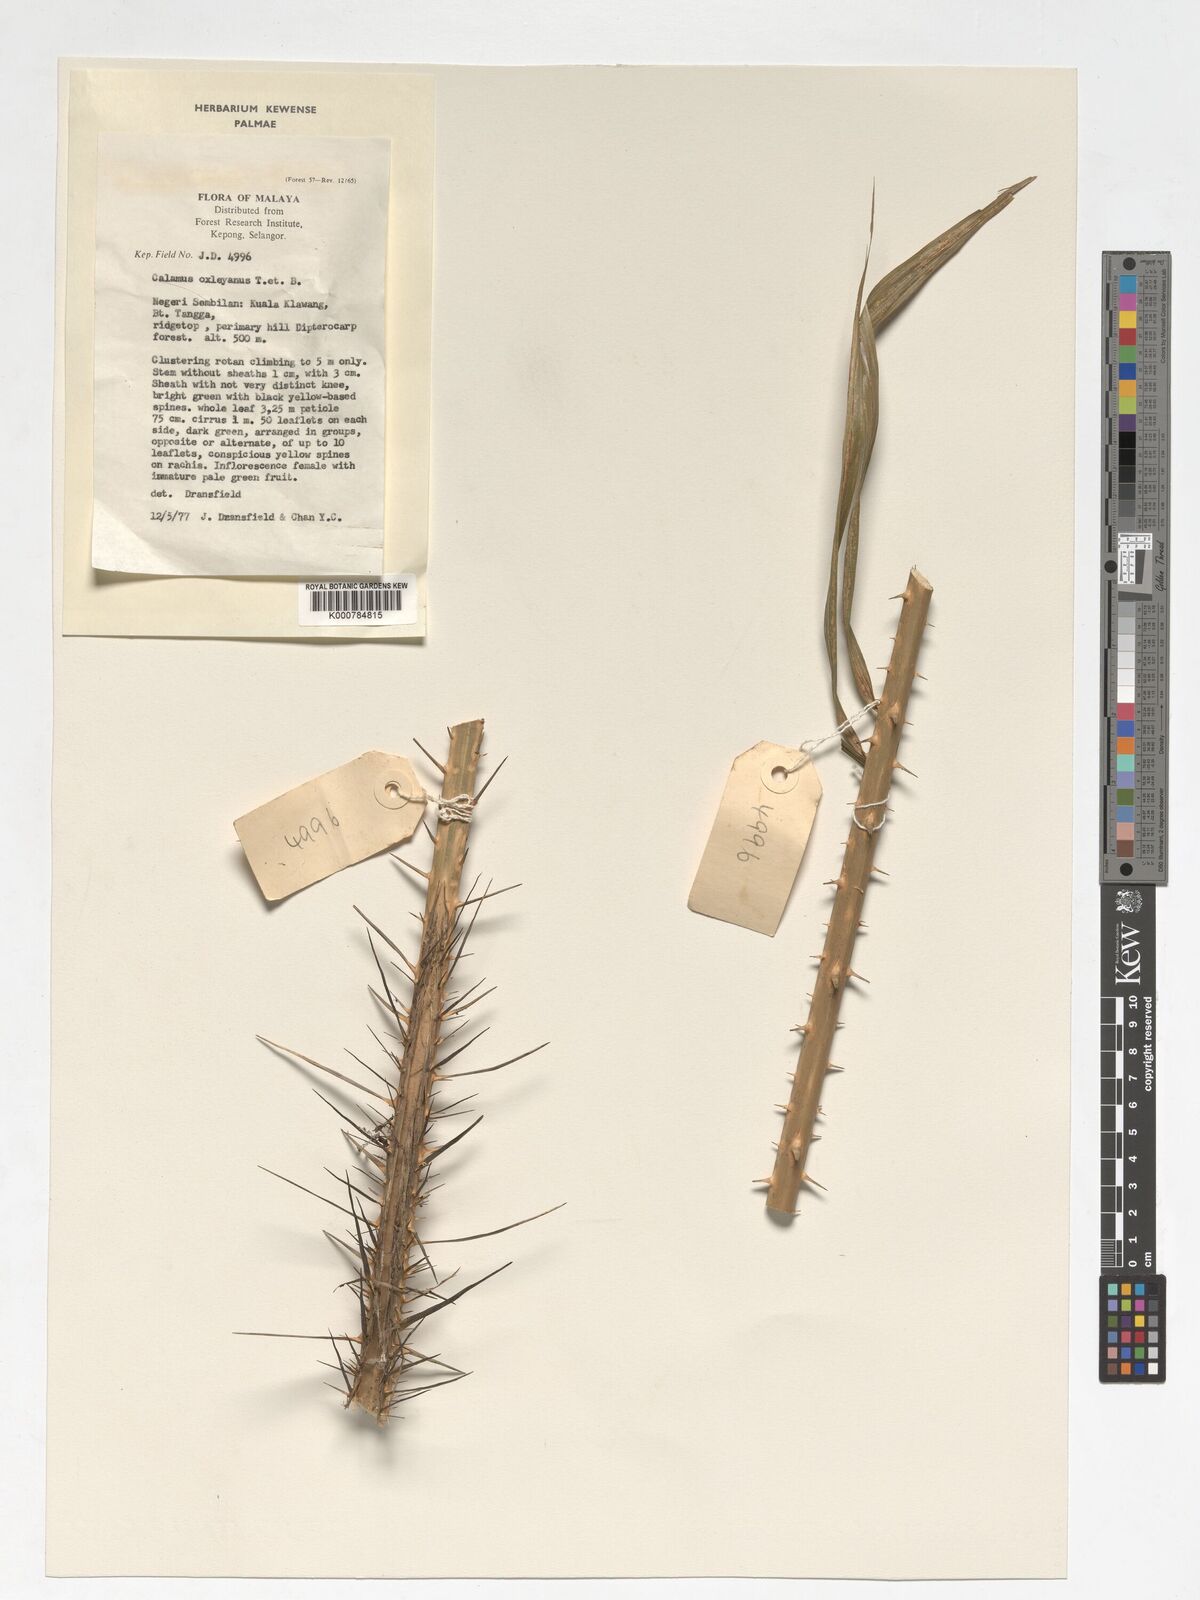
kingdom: Plantae
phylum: Tracheophyta
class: Liliopsida
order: Arecales
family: Arecaceae
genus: Calamus
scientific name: Calamus oxleyanus
